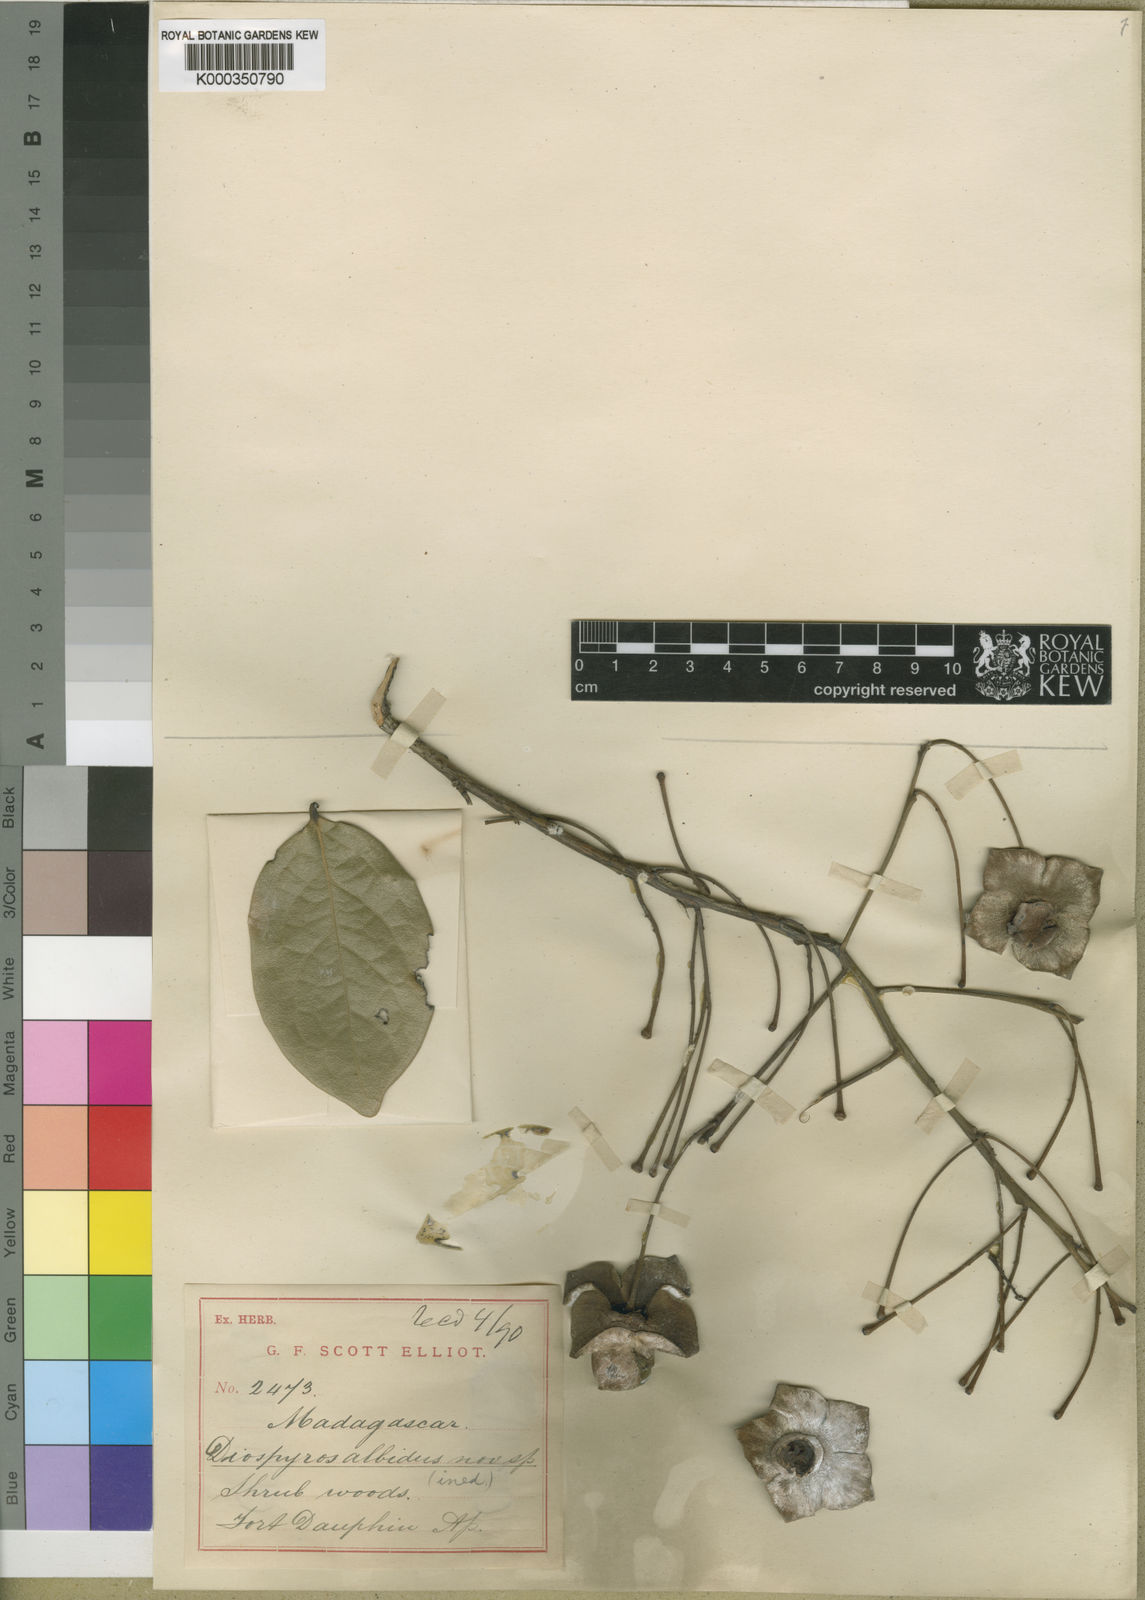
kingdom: Plantae
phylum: Tracheophyta
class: Magnoliopsida
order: Ericales
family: Ebenaceae
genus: Diospyros
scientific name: Diospyros
